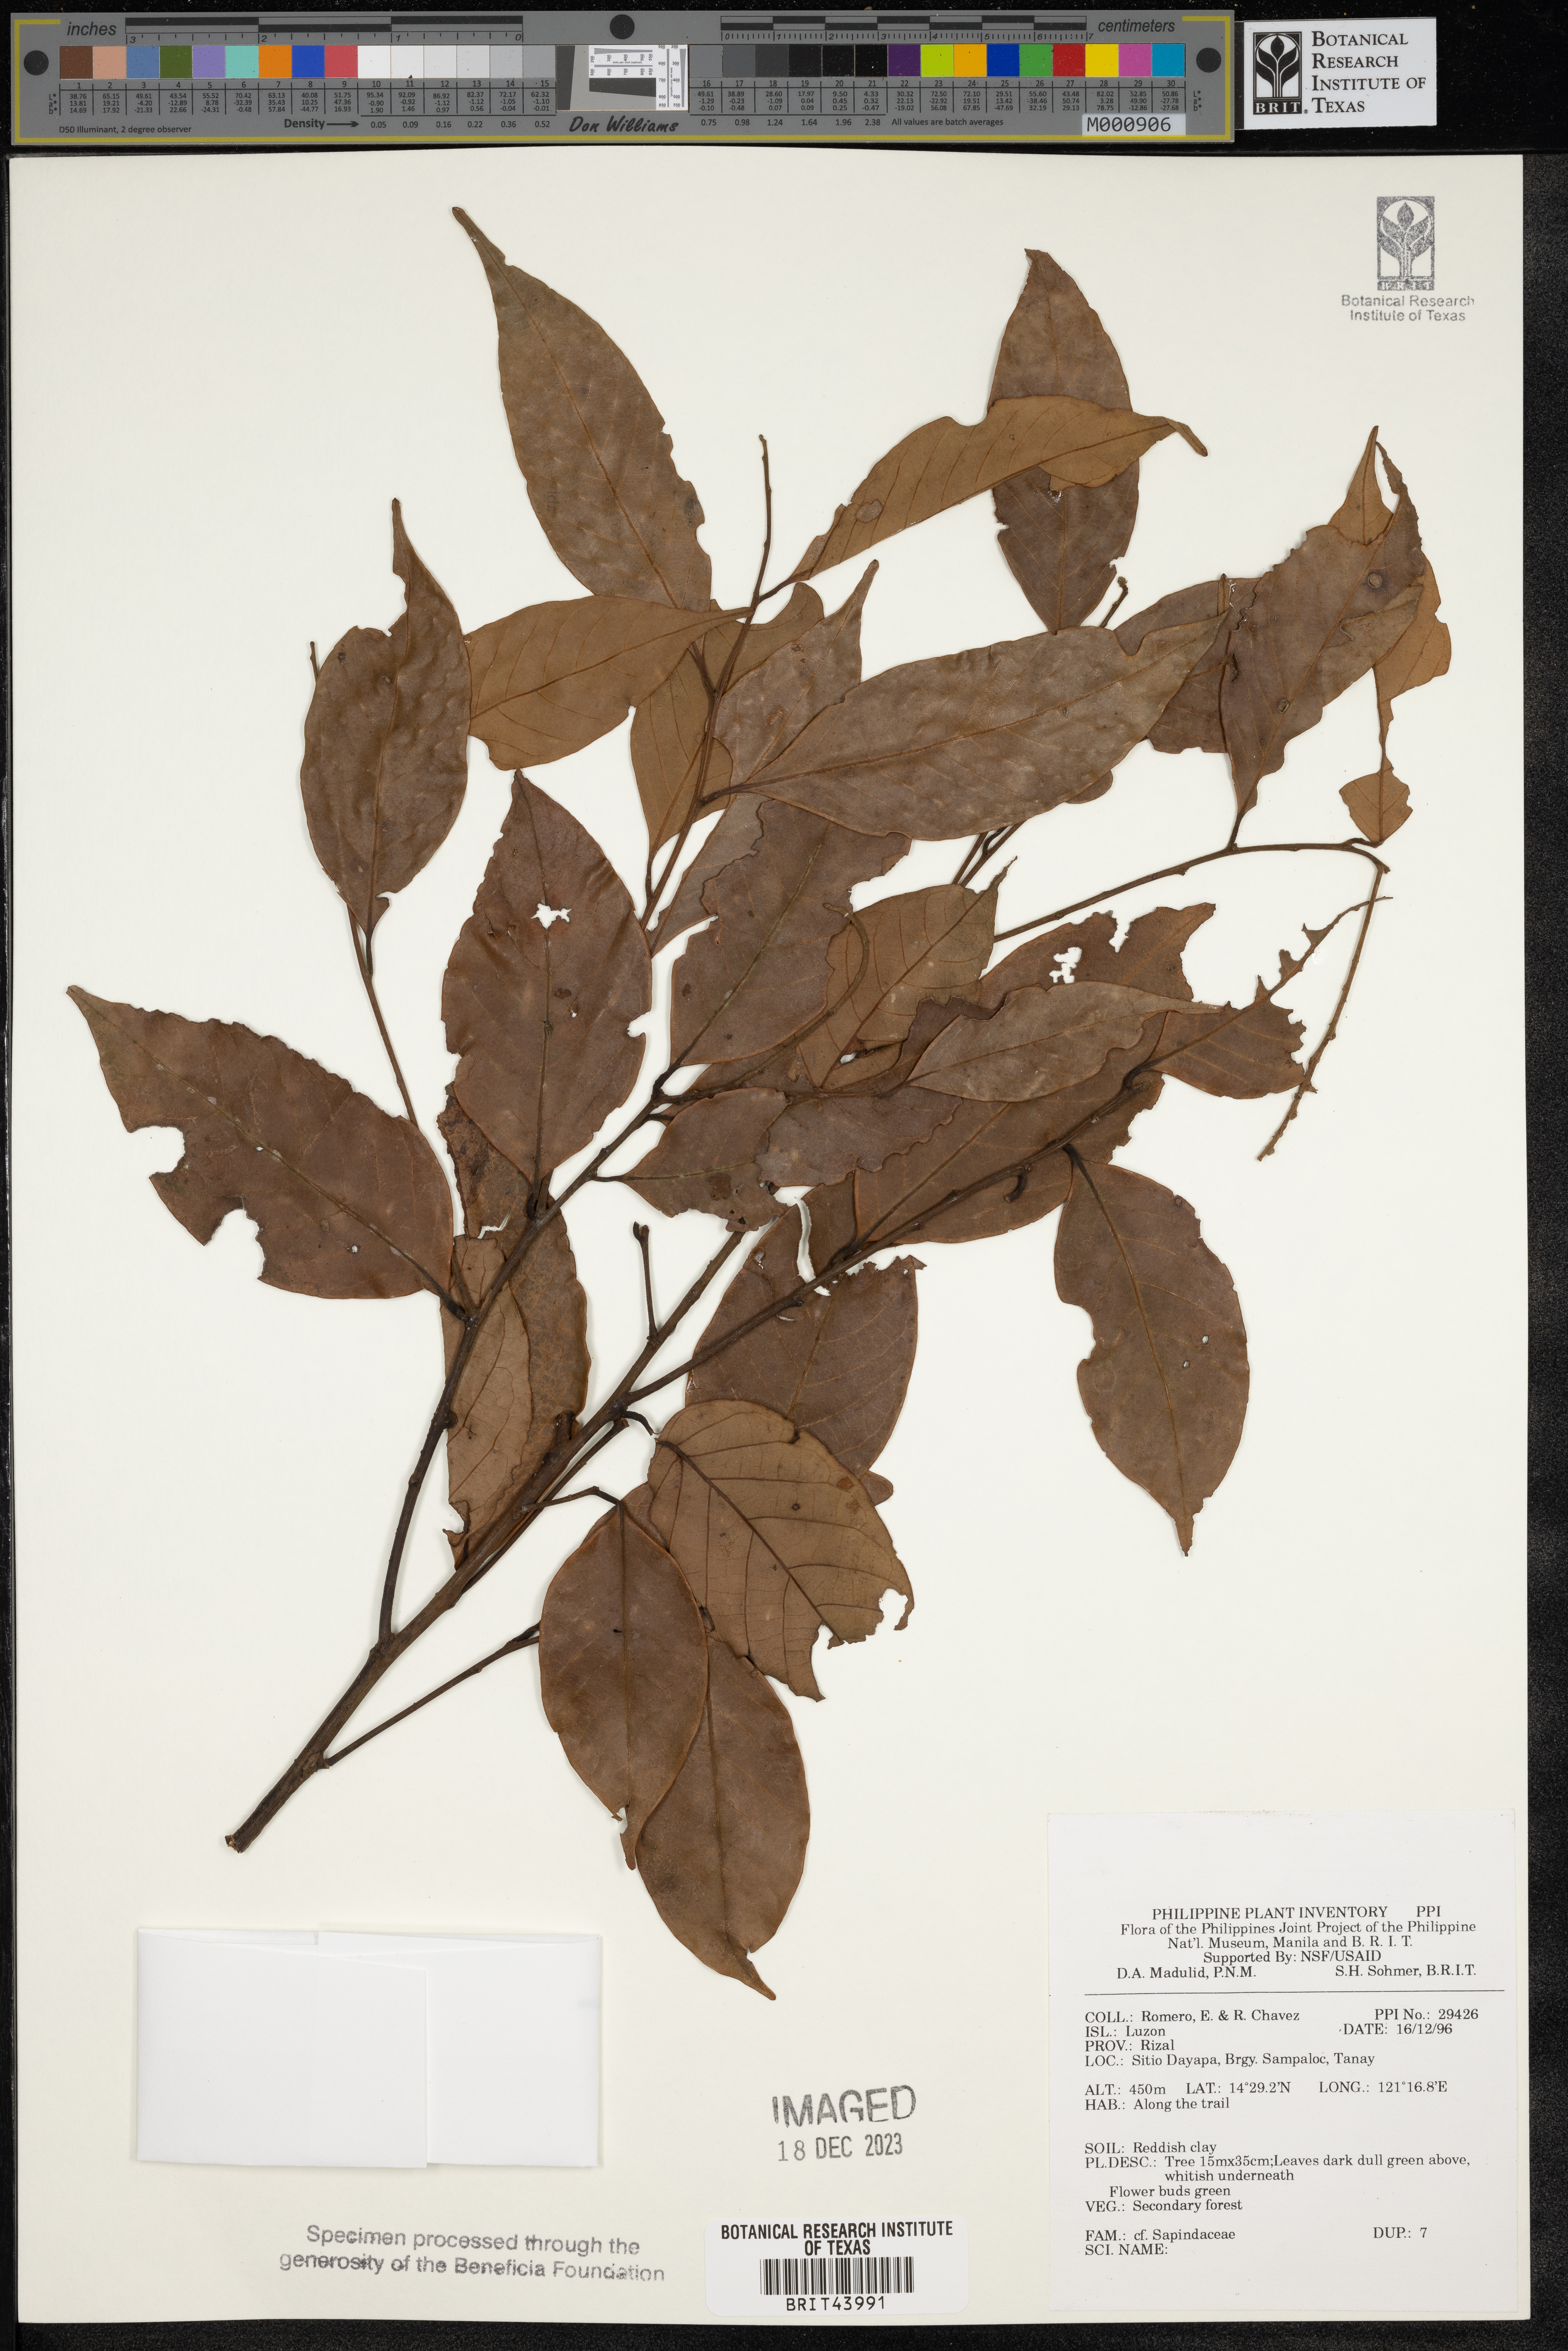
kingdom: Plantae
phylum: Tracheophyta
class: Magnoliopsida
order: Sapindales
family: Sapindaceae
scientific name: Sapindaceae
